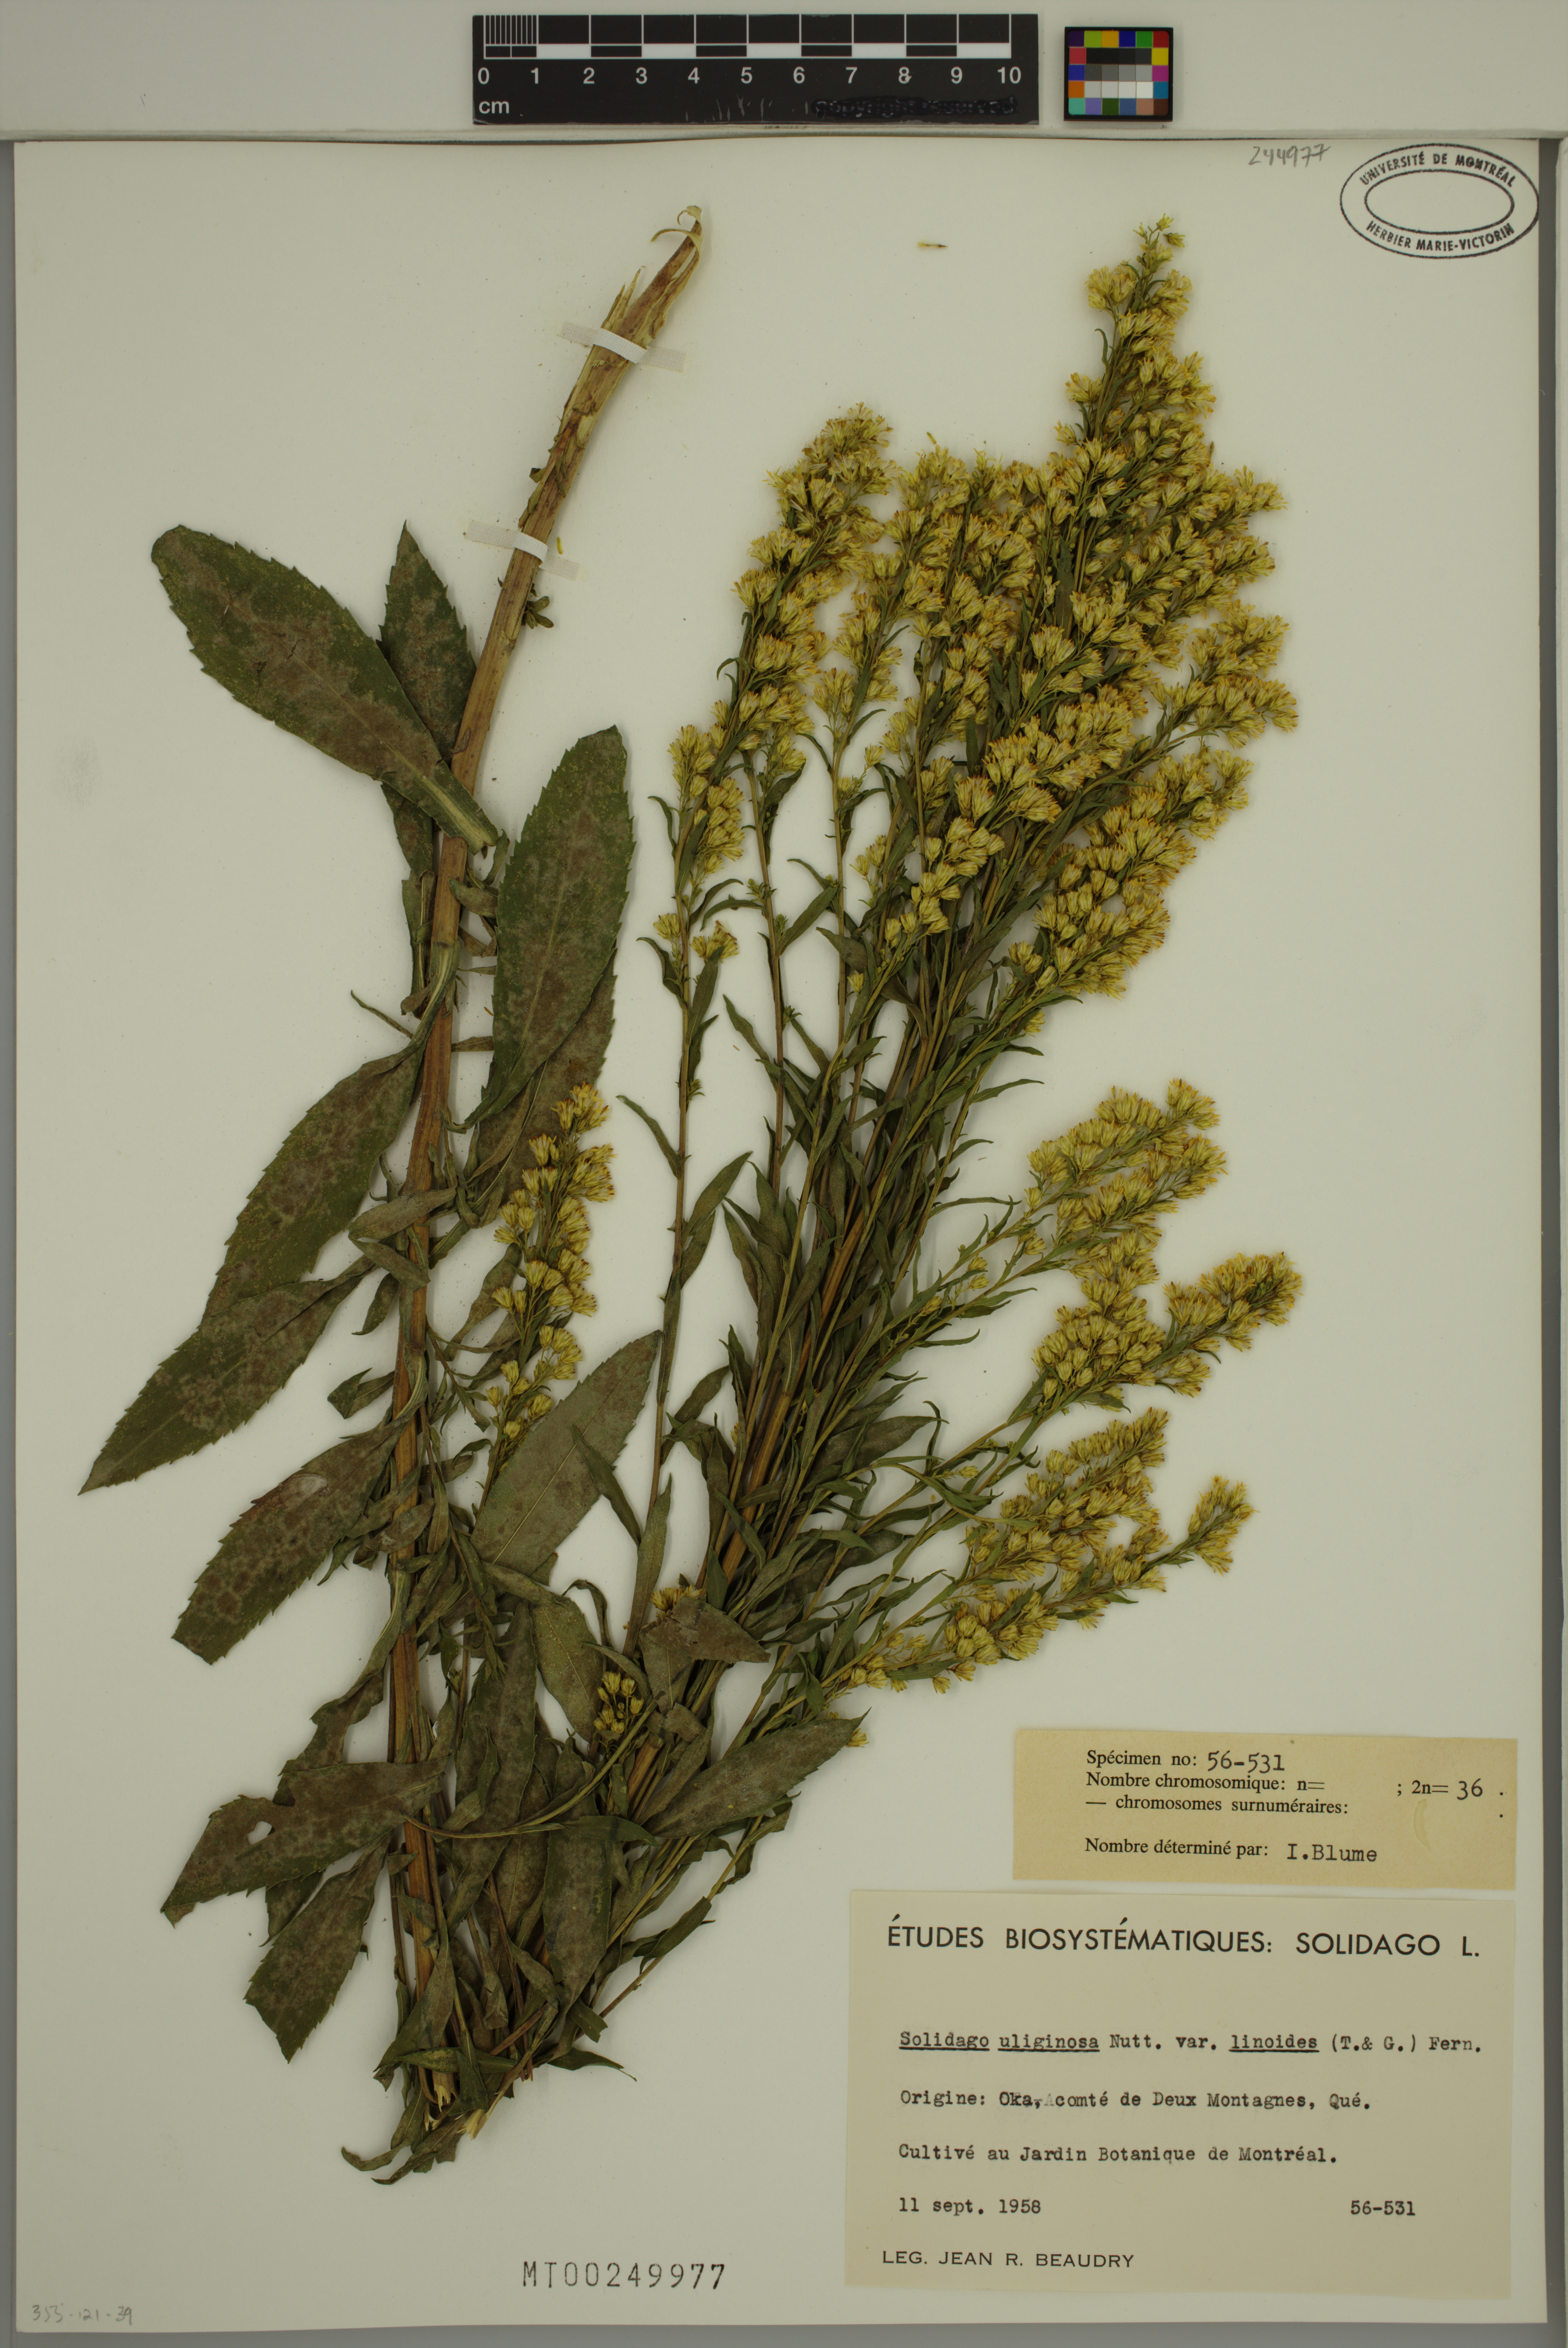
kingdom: Plantae
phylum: Tracheophyta
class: Magnoliopsida
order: Asterales
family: Asteraceae
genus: Solidago
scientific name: Solidago uliginosa
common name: Bog goldenrod
